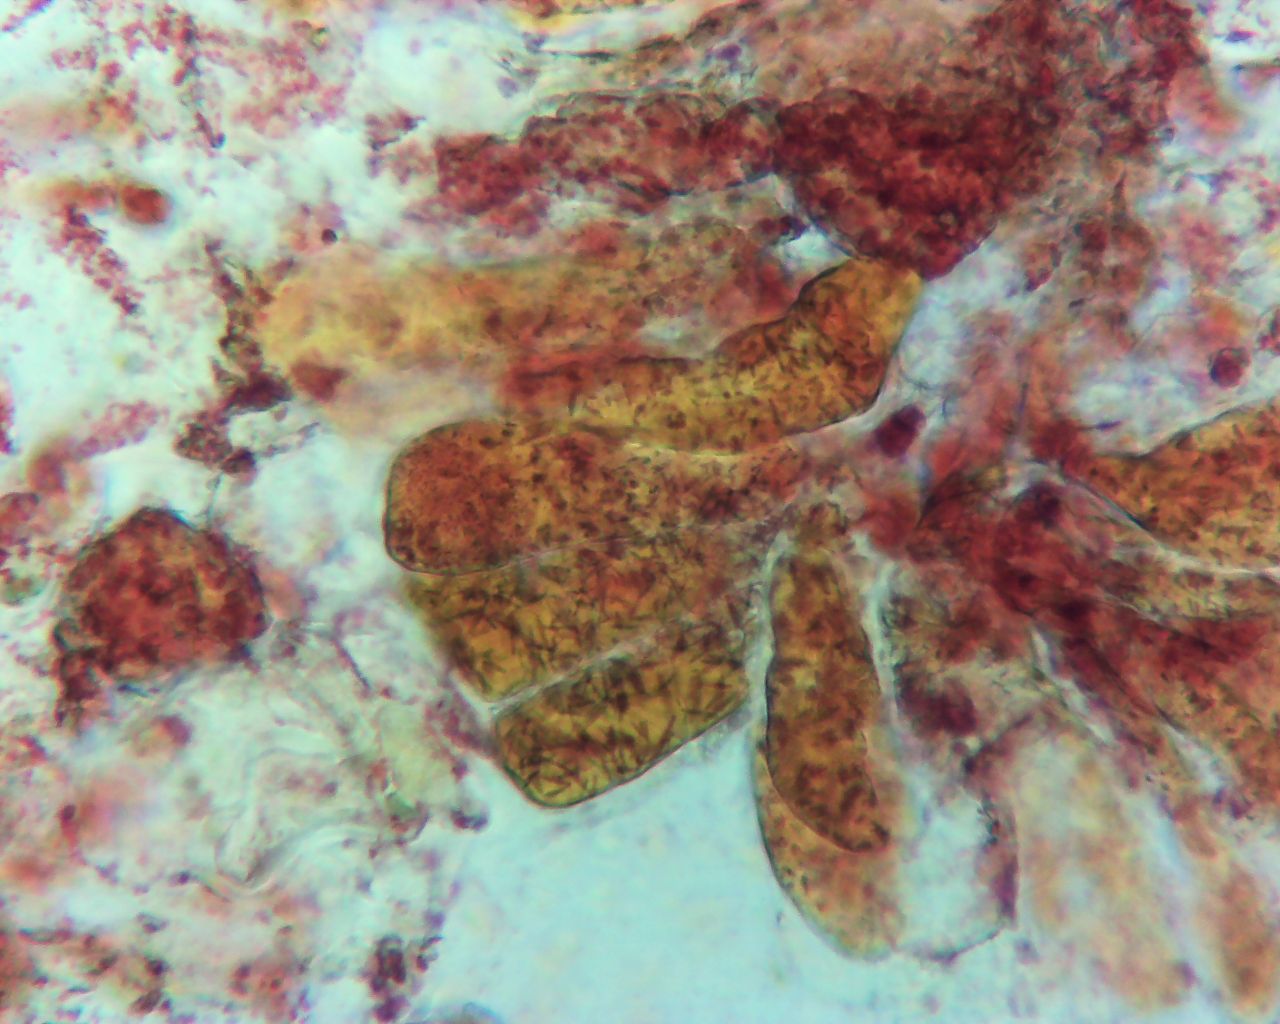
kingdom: Fungi
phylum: Basidiomycota
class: Pucciniomycetes
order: Pucciniales
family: Coleosporiaceae
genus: Coleosporium
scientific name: Coleosporium tussilaginis
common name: almindelig fyrrenålerust
